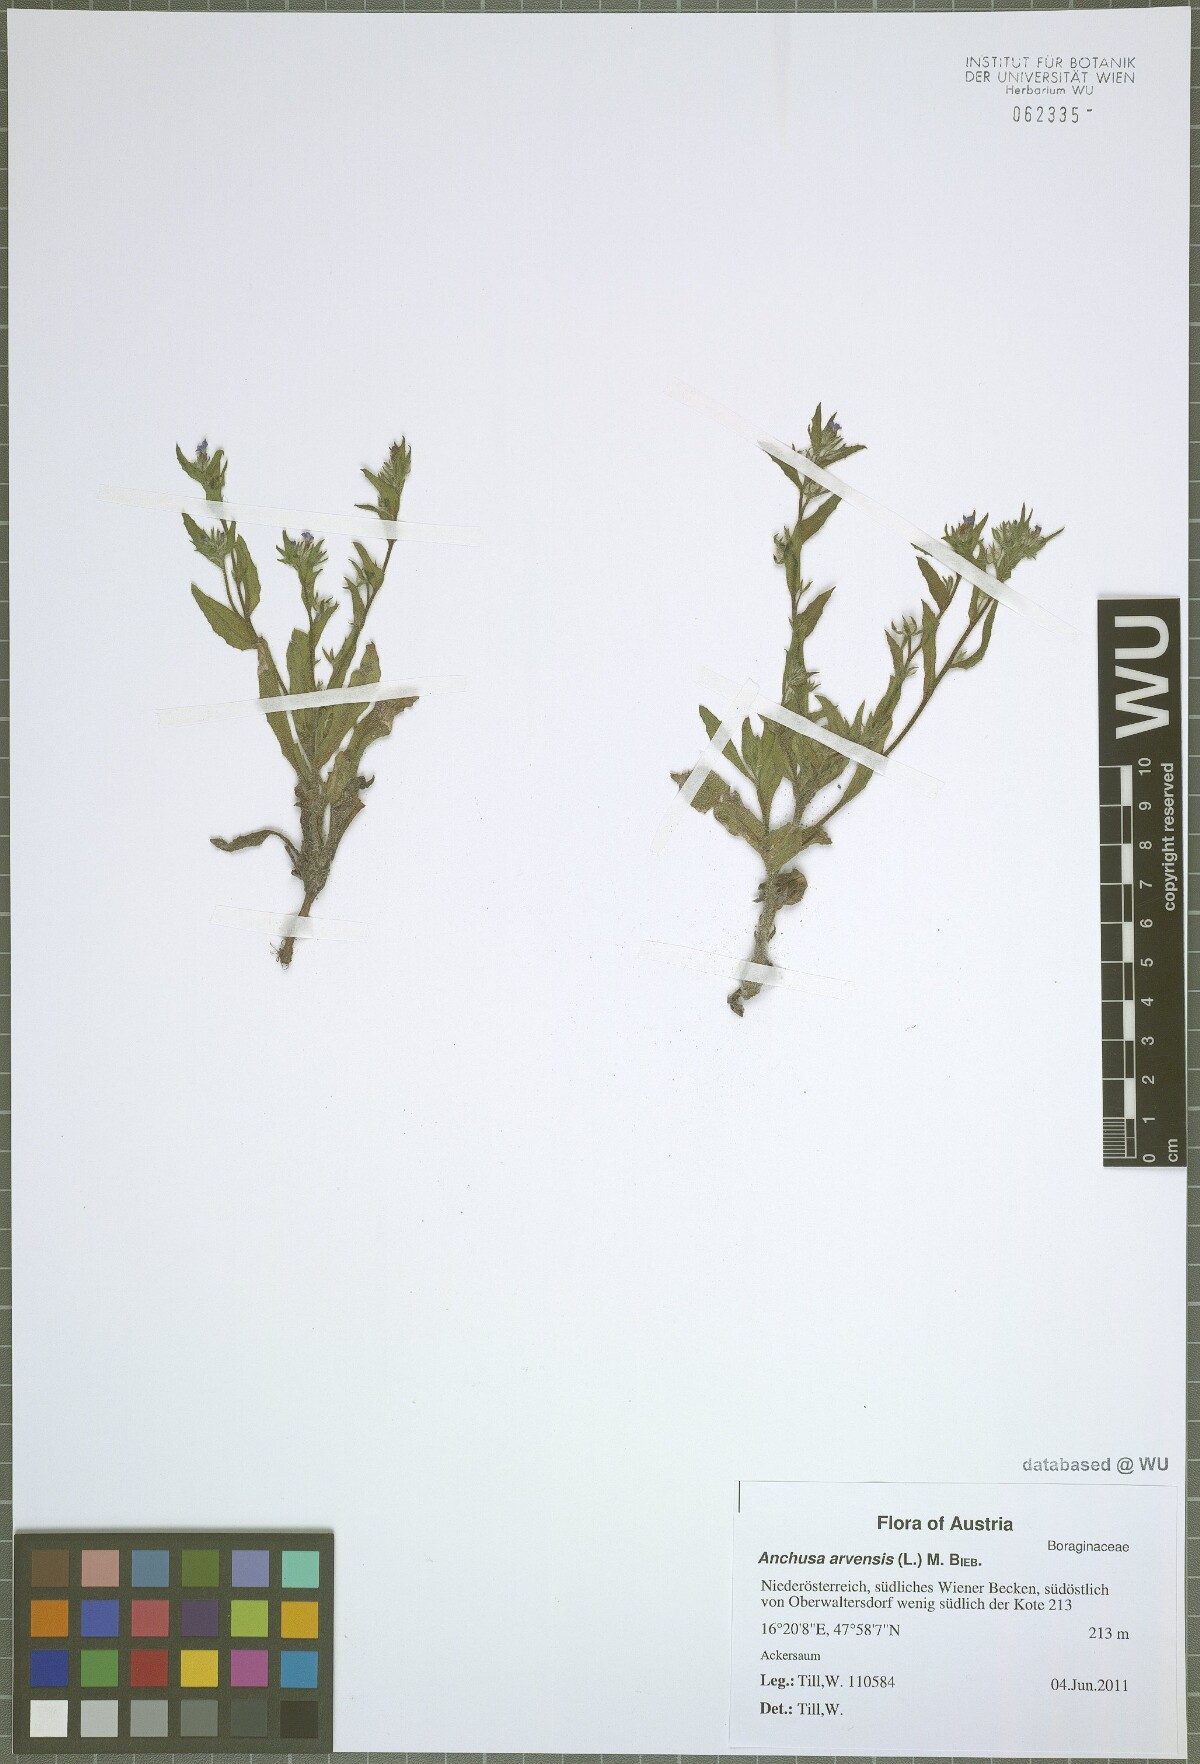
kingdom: Plantae
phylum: Tracheophyta
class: Magnoliopsida
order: Boraginales
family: Boraginaceae
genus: Lycopsis
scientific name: Lycopsis arvensis
